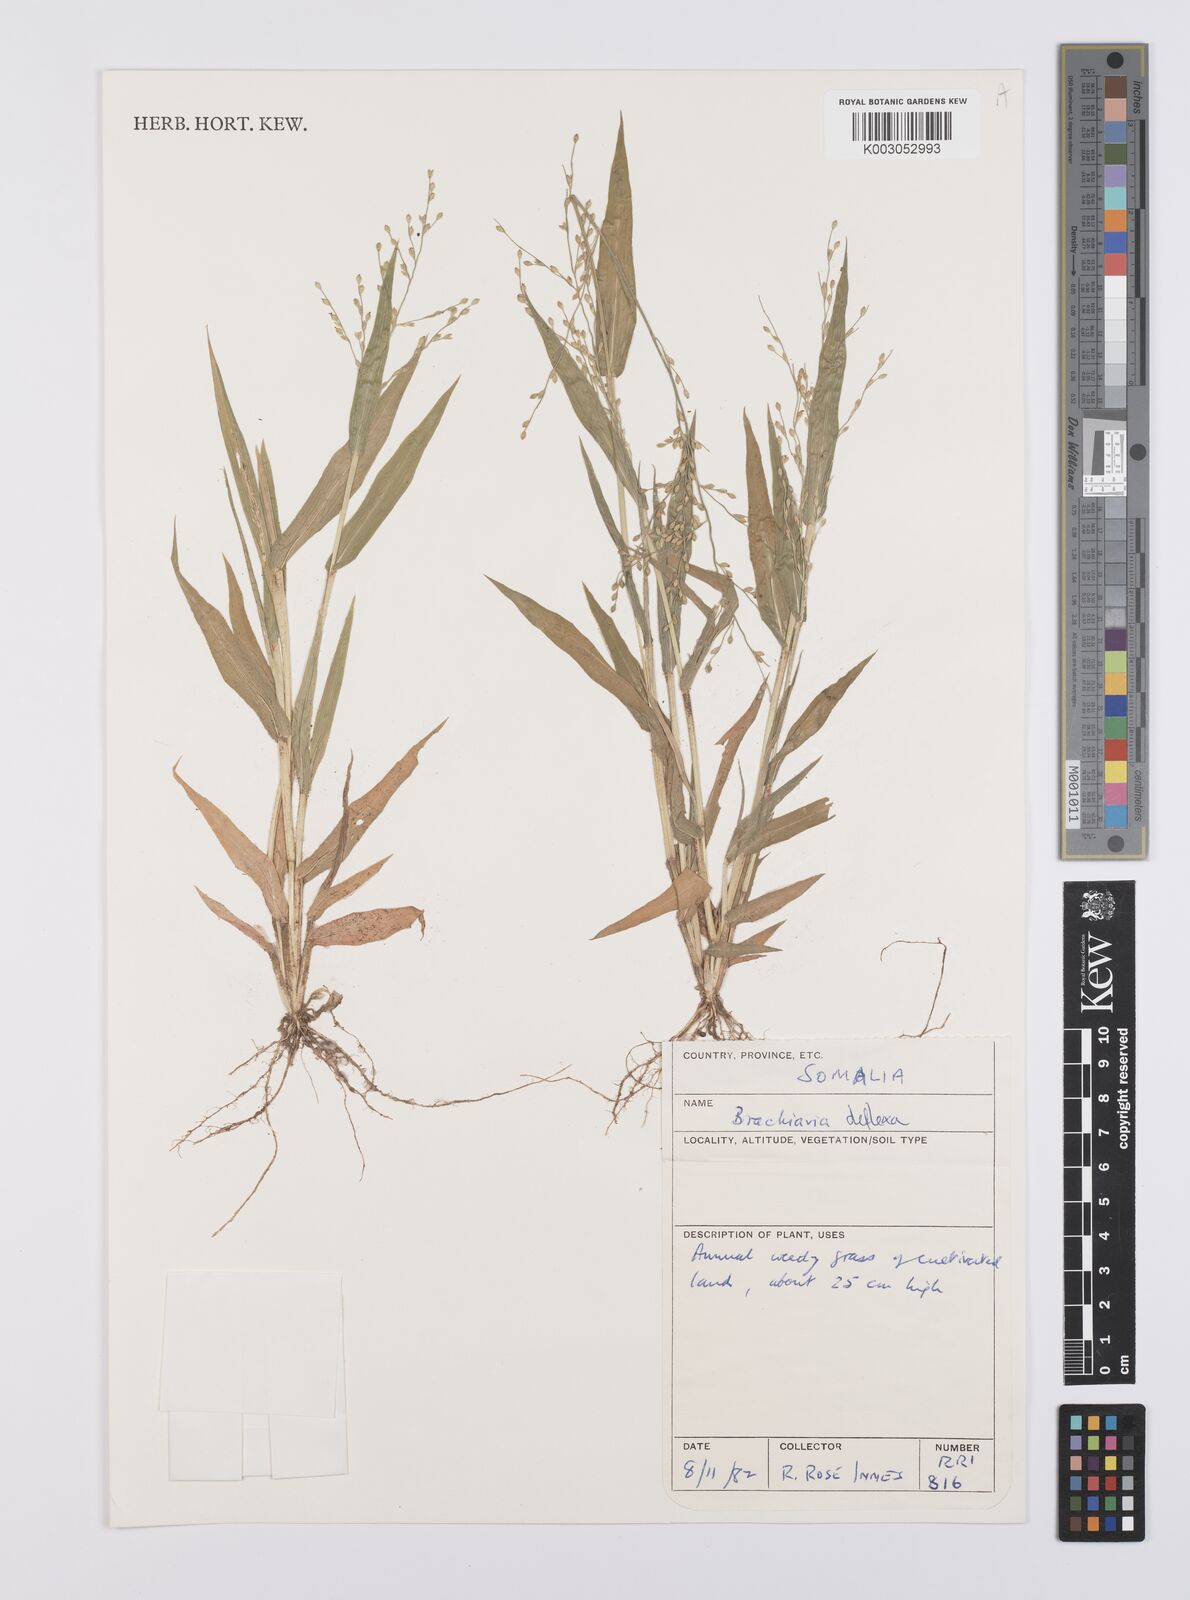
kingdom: Plantae
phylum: Tracheophyta
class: Liliopsida
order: Poales
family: Poaceae
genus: Urochloa
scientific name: Urochloa deflexa
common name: Guinea millet
